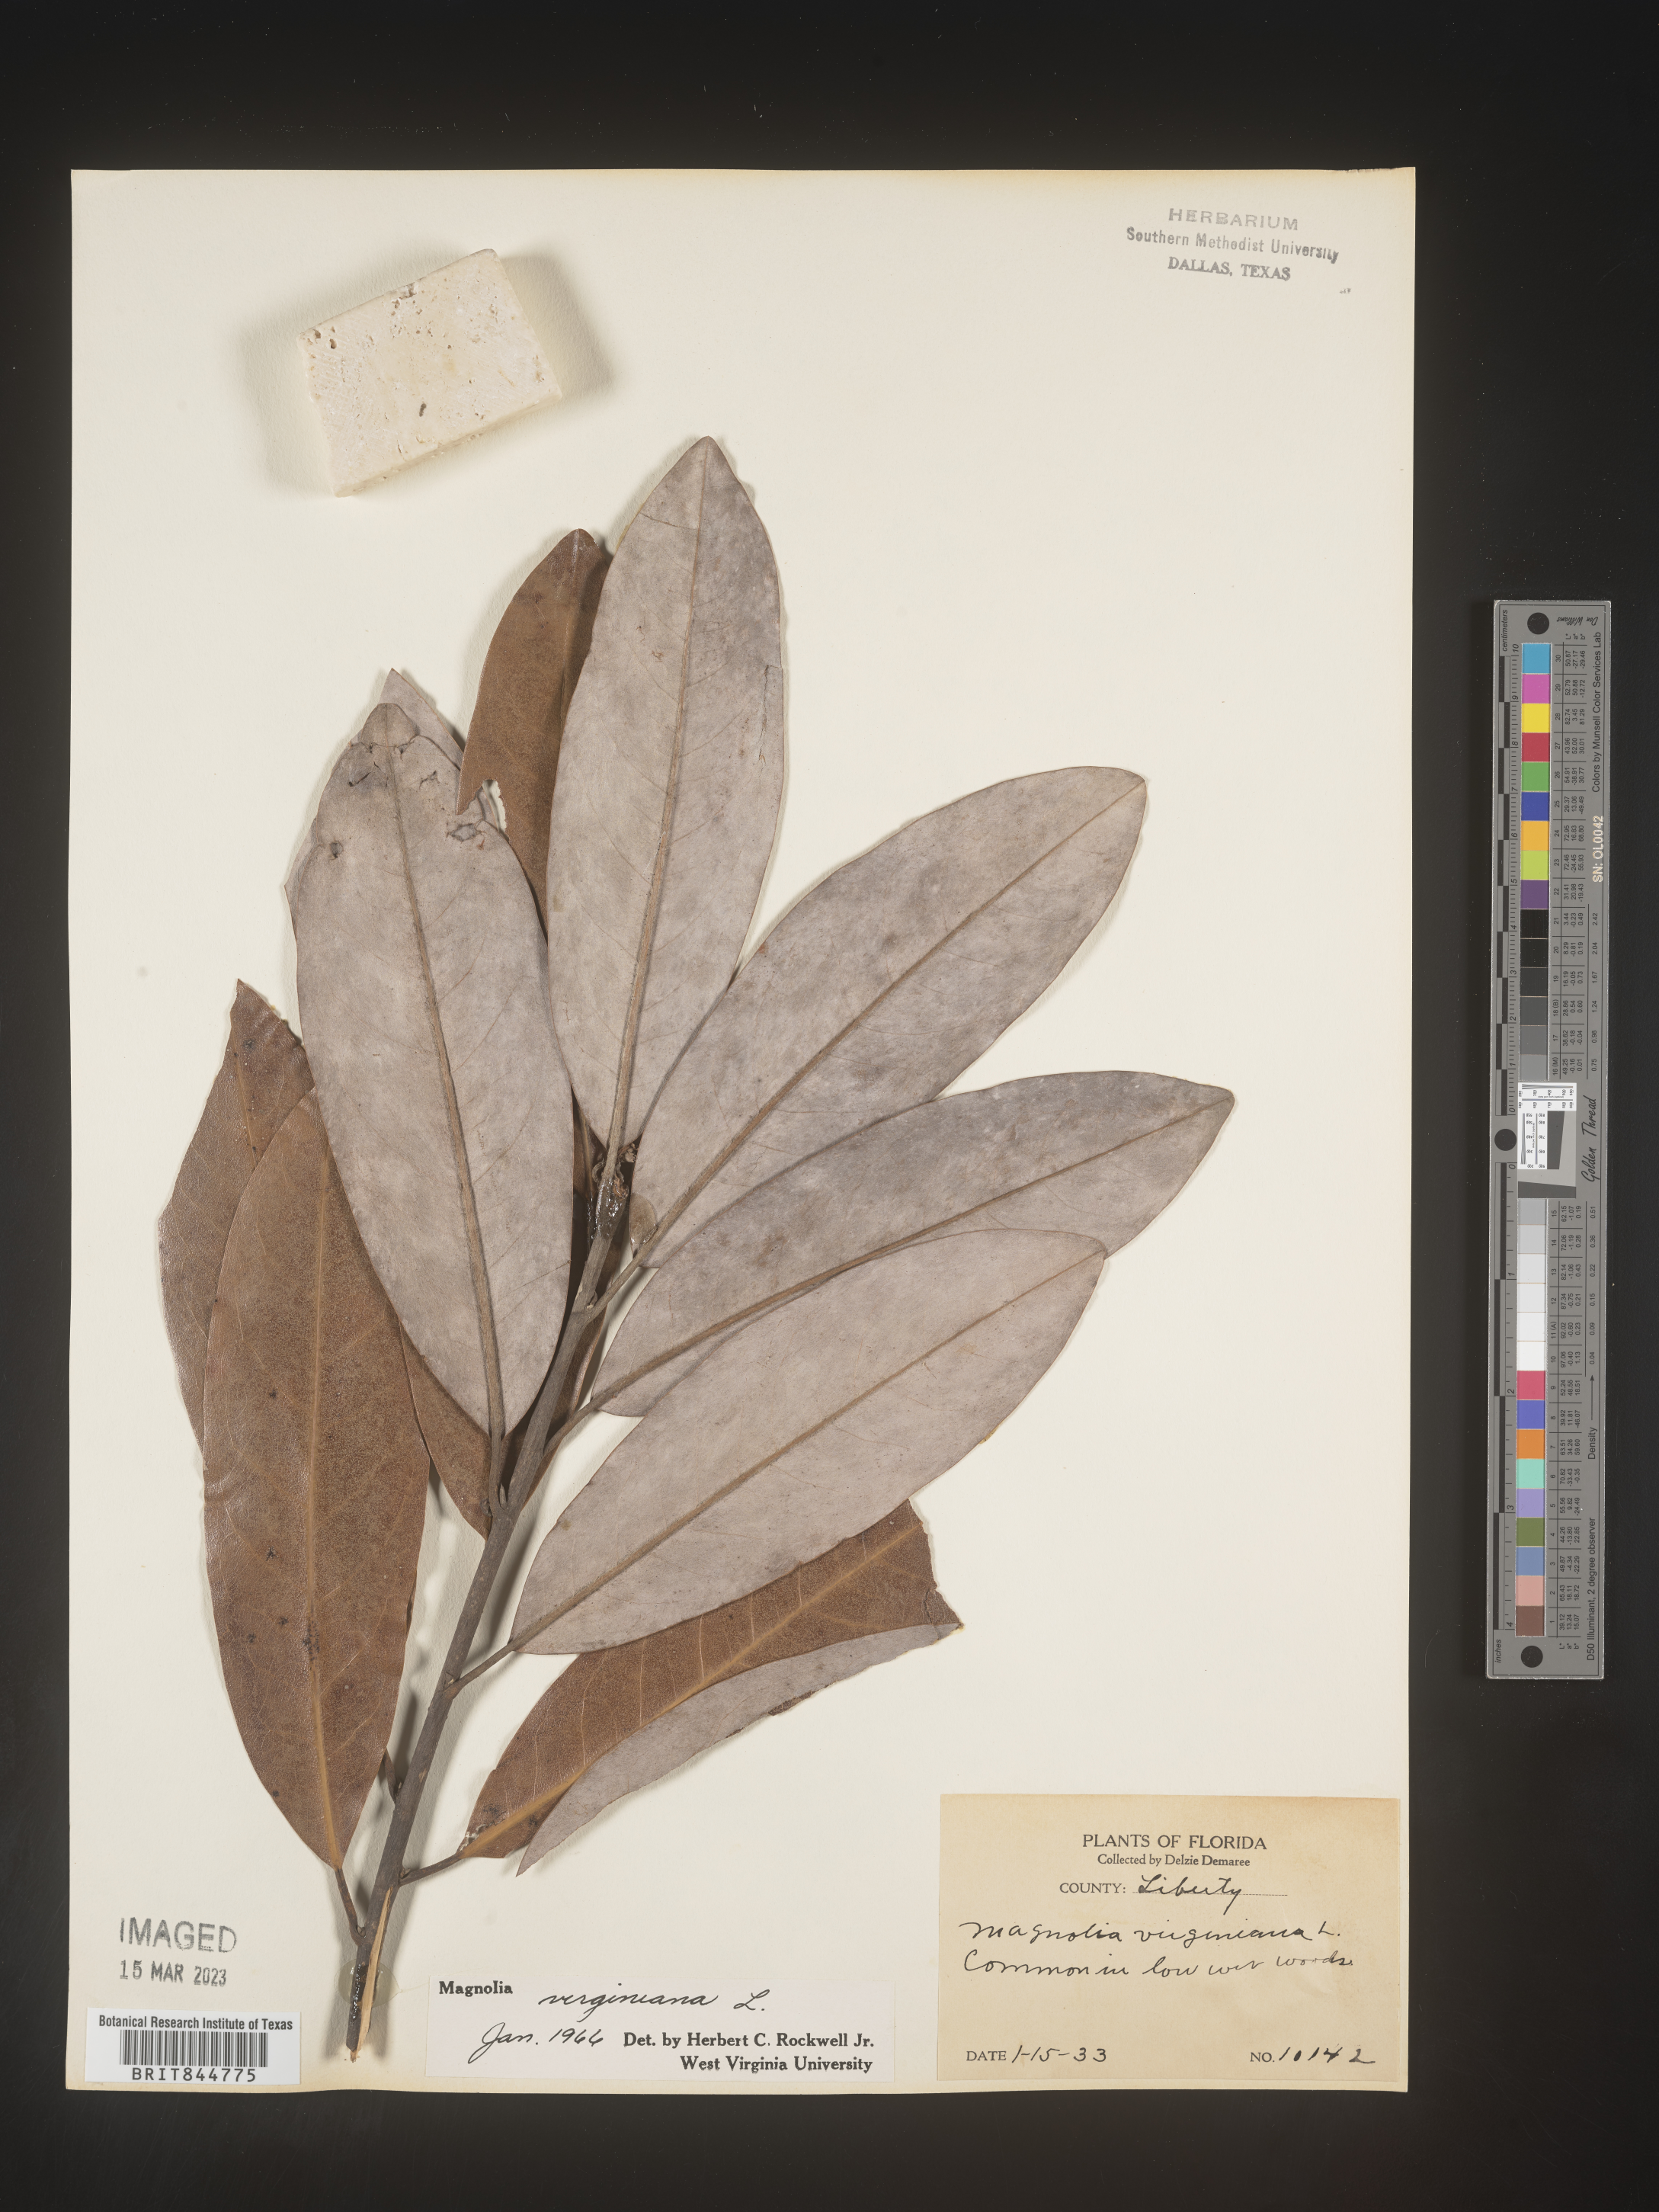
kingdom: Plantae
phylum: Tracheophyta
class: Magnoliopsida
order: Magnoliales
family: Magnoliaceae
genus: Magnolia
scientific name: Magnolia virginiana
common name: Swamp bay
